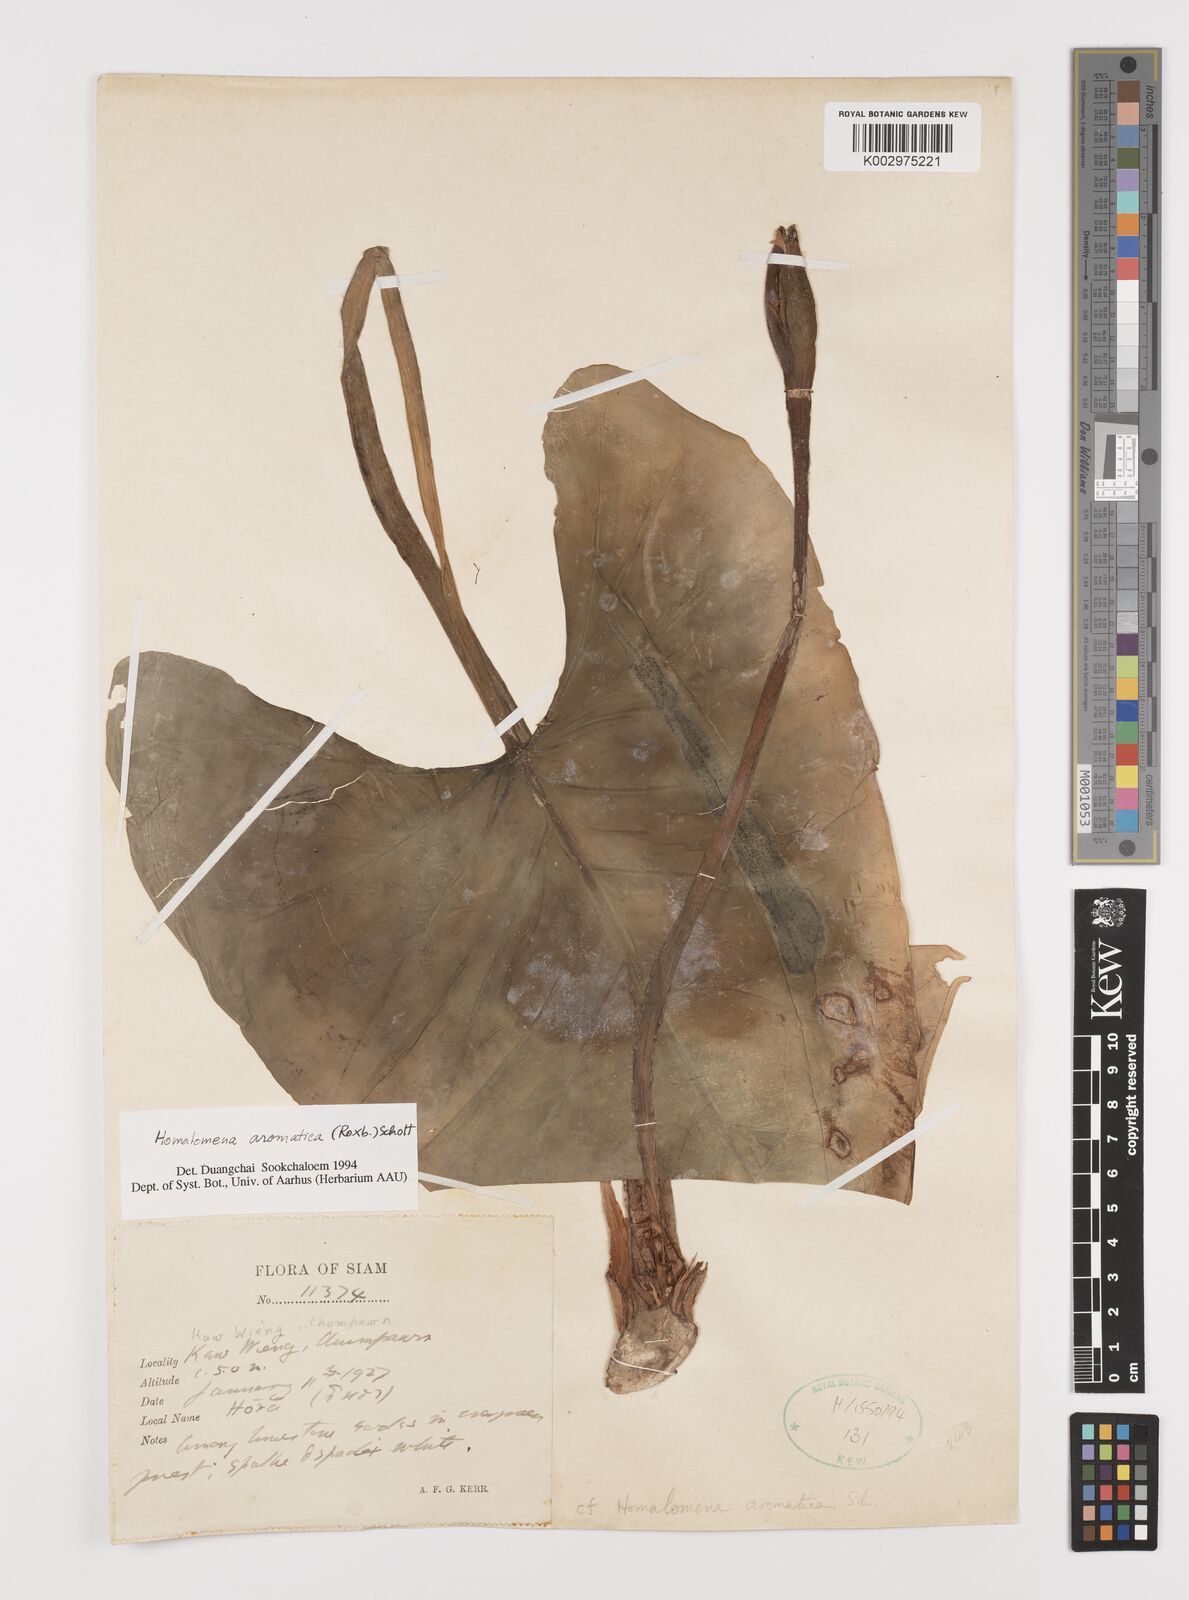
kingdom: Plantae
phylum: Tracheophyta
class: Liliopsida
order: Alismatales
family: Araceae
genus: Homalomena
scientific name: Homalomena aromatica
